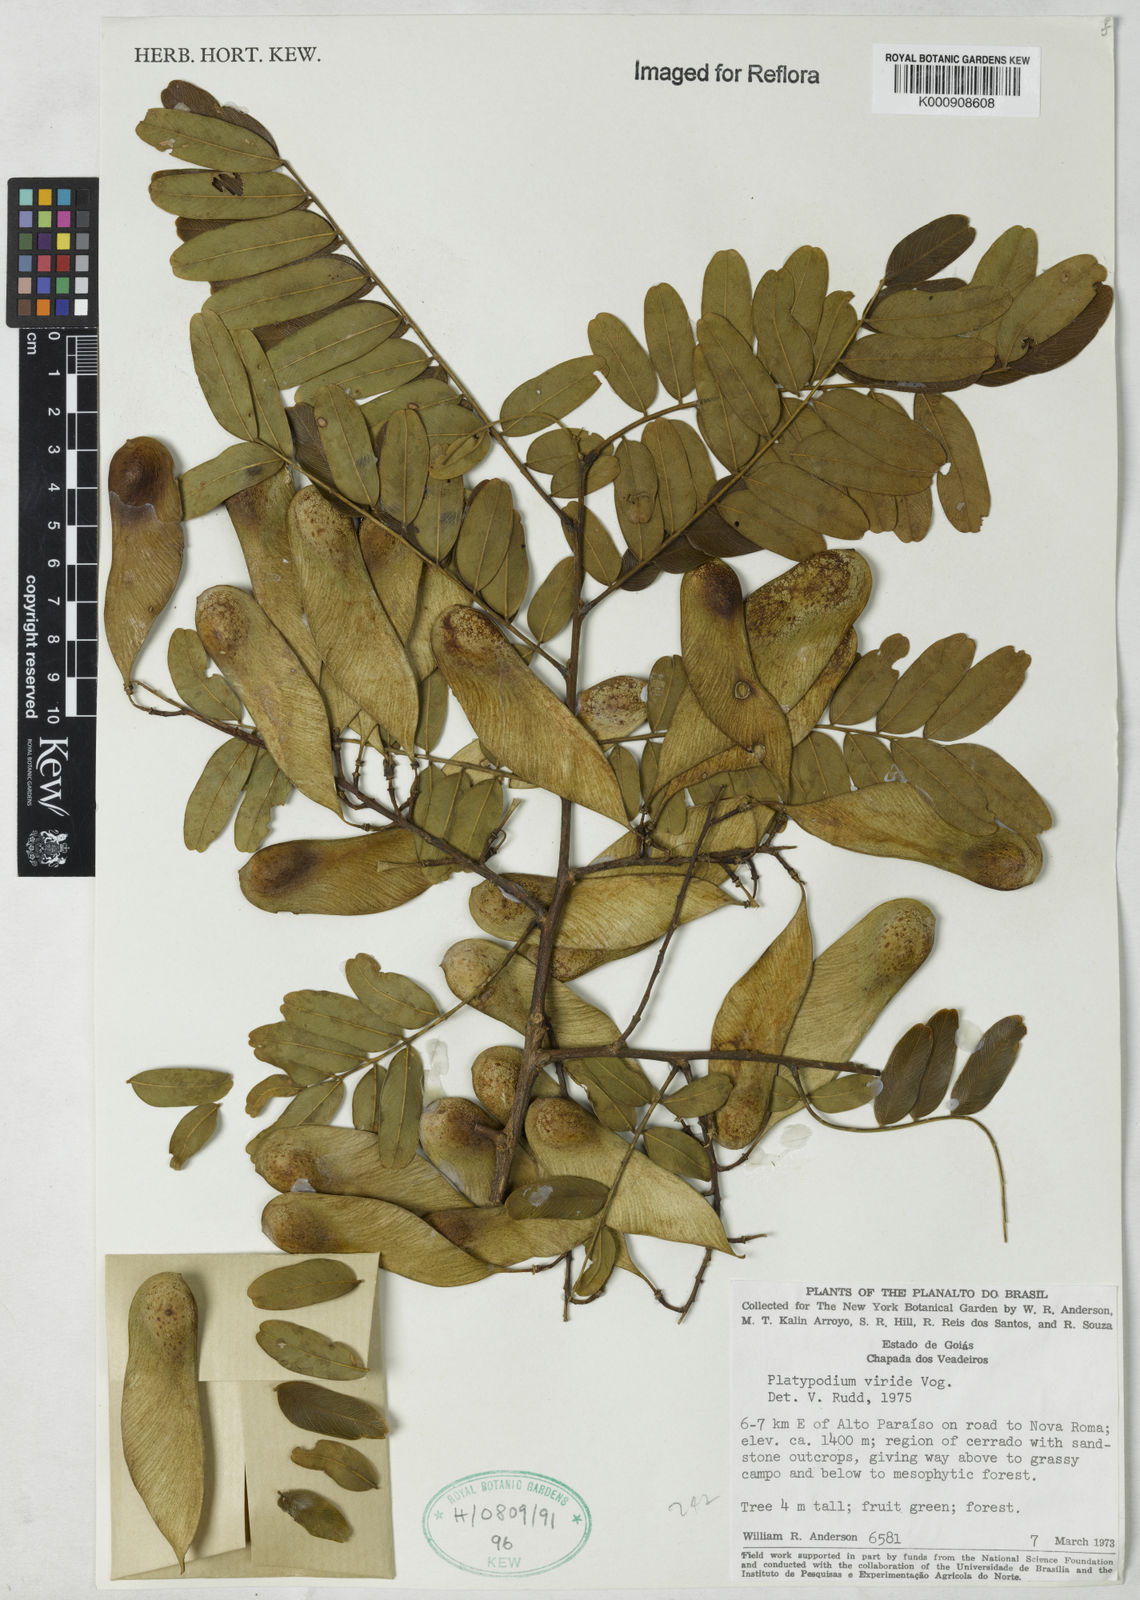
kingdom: Plantae
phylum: Tracheophyta
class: Magnoliopsida
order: Fabales
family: Fabaceae
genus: Platypodium
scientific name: Platypodium viride
